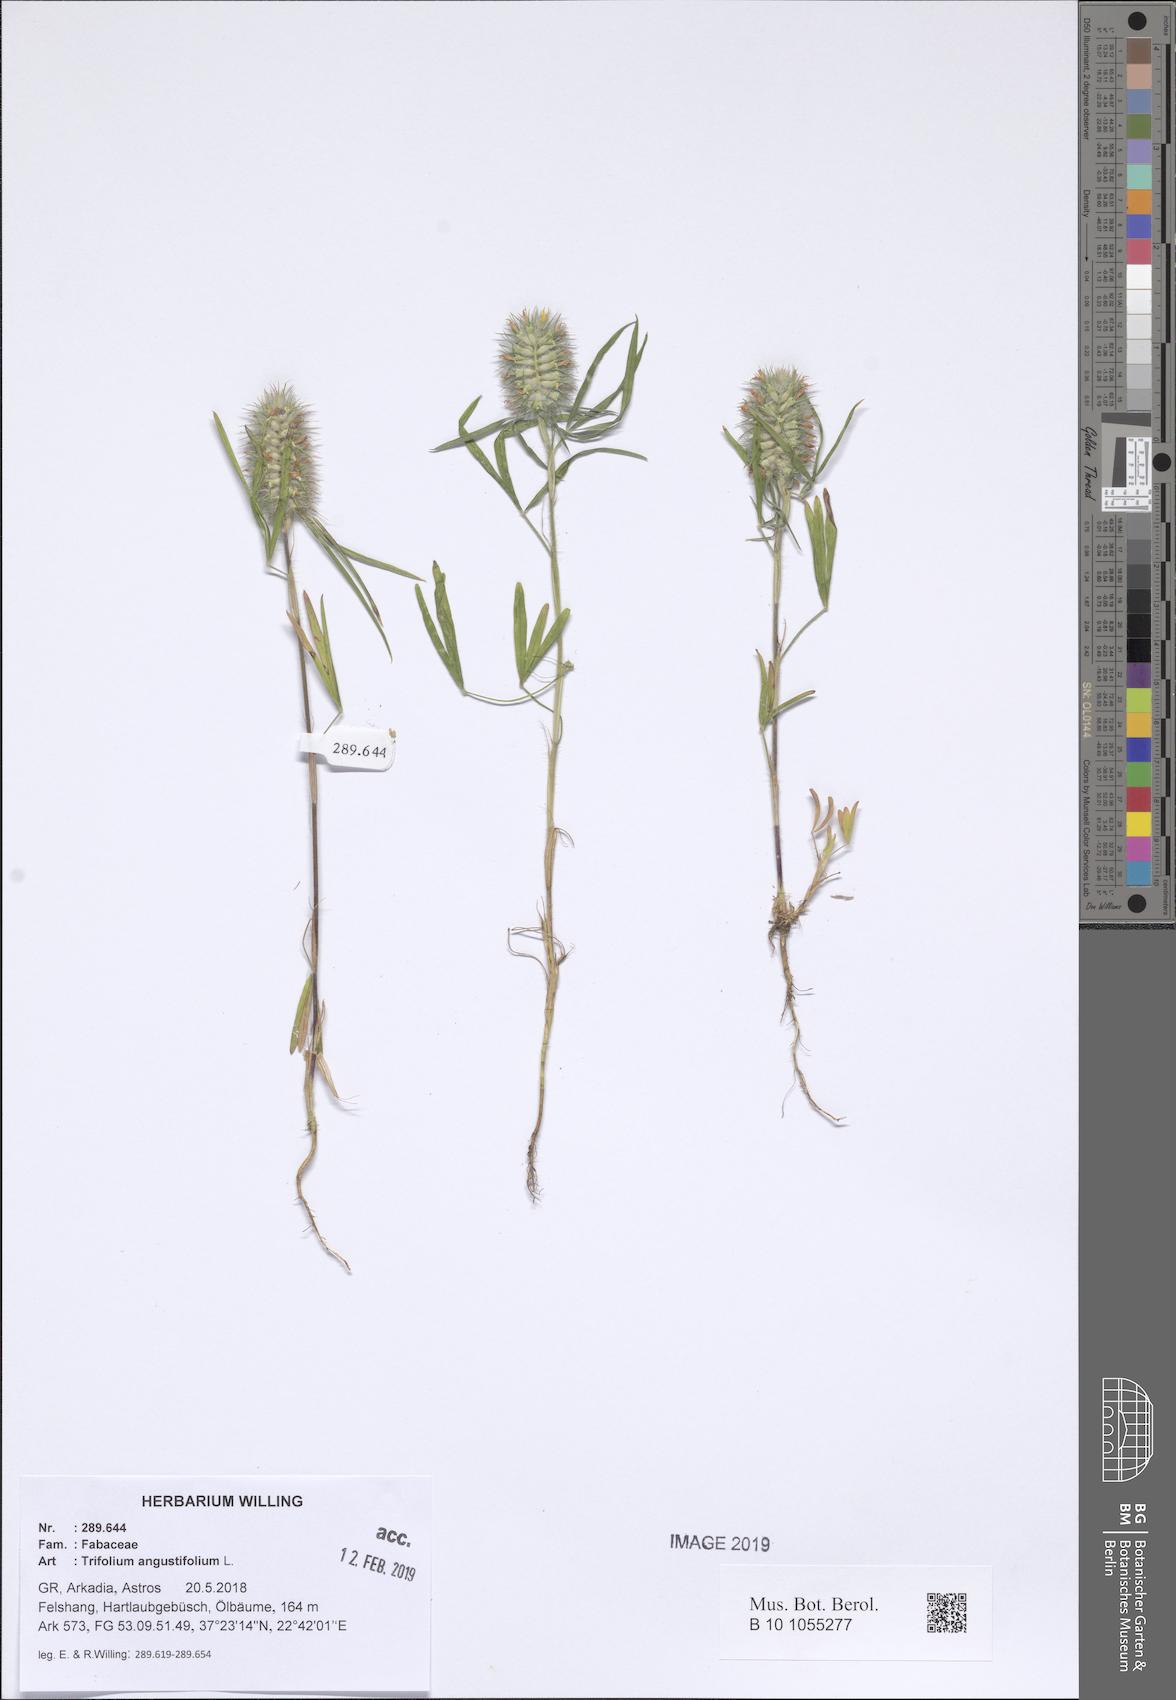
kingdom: Plantae
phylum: Tracheophyta
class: Magnoliopsida
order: Fabales
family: Fabaceae
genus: Trifolium
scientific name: Trifolium angustifolium
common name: Narrow clover
